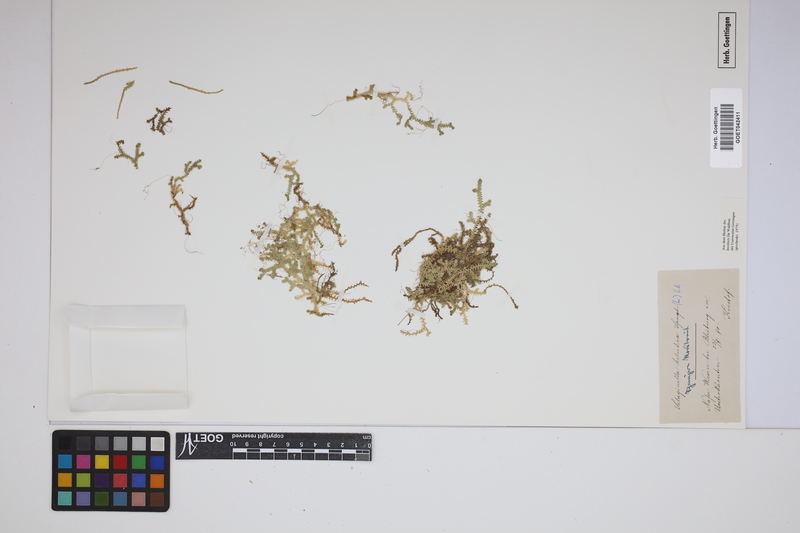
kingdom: Plantae
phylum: Tracheophyta
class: Lycopodiopsida
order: Selaginellales
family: Selaginellaceae
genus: Selaginella
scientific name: Selaginella helvetica
